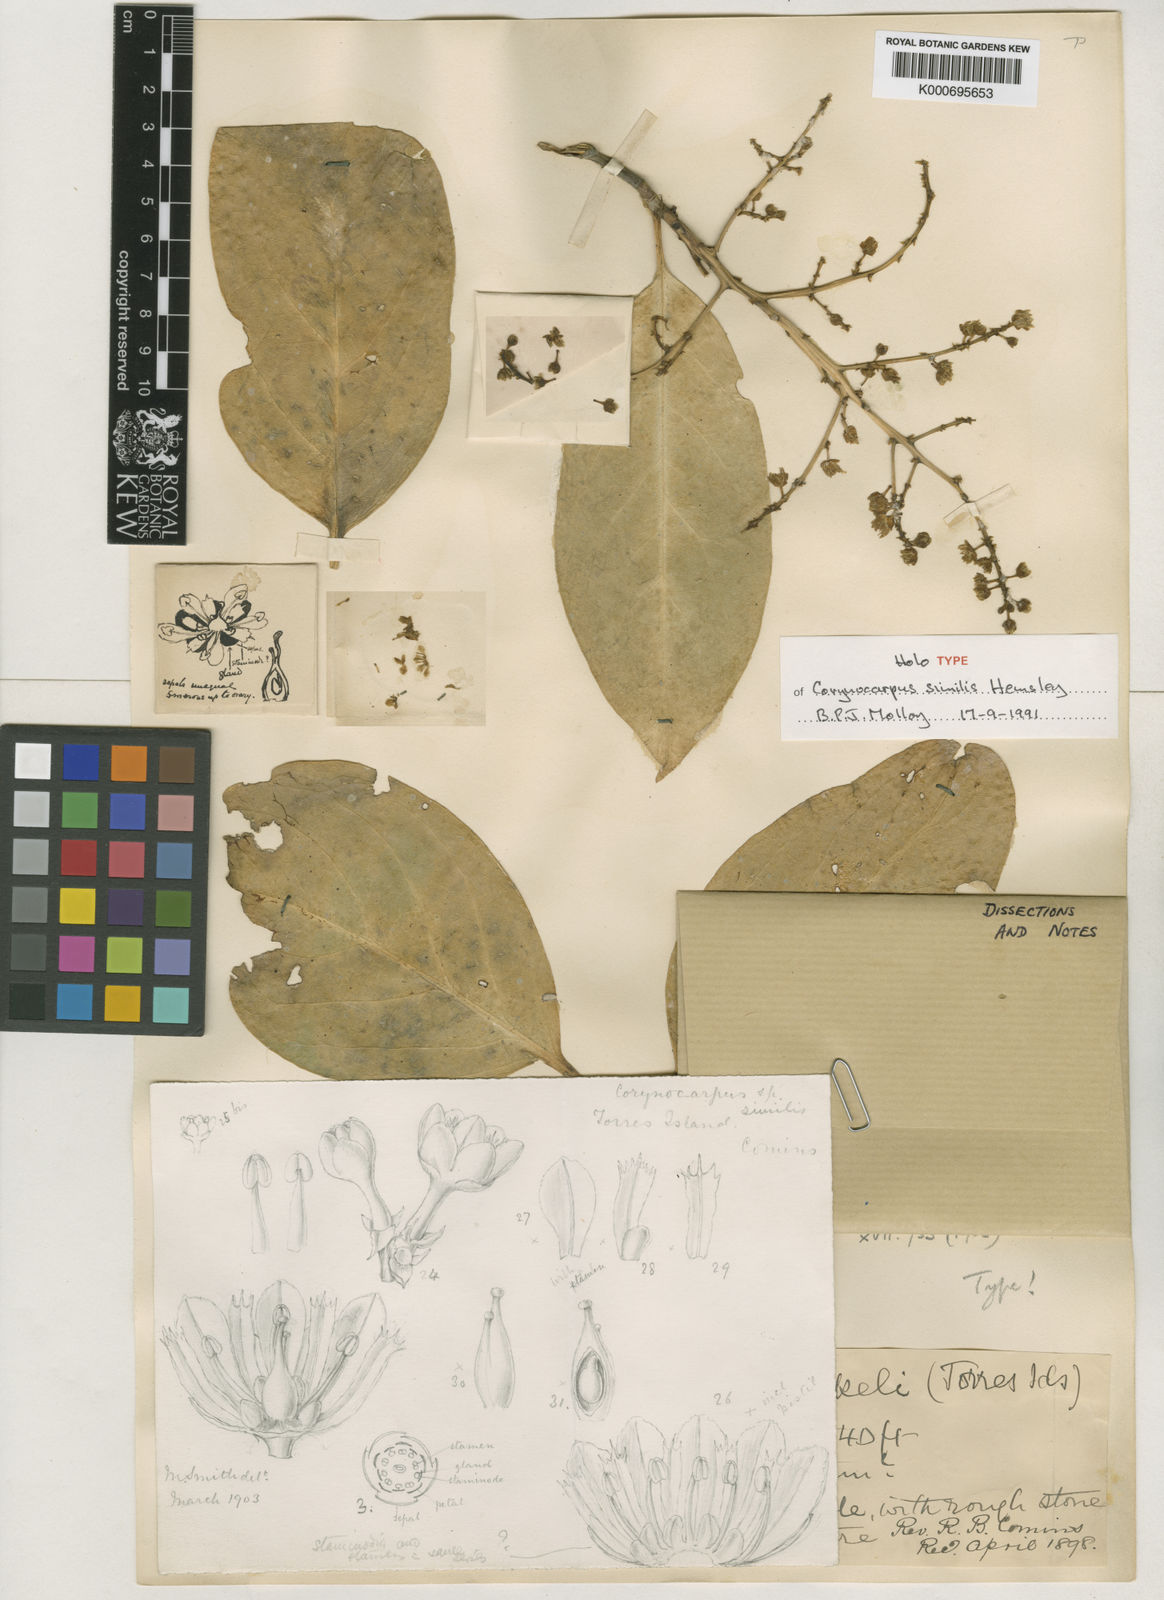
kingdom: Plantae
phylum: Tracheophyta
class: Magnoliopsida
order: Cucurbitales
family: Corynocarpaceae
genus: Corynocarpus
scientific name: Corynocarpus similis
